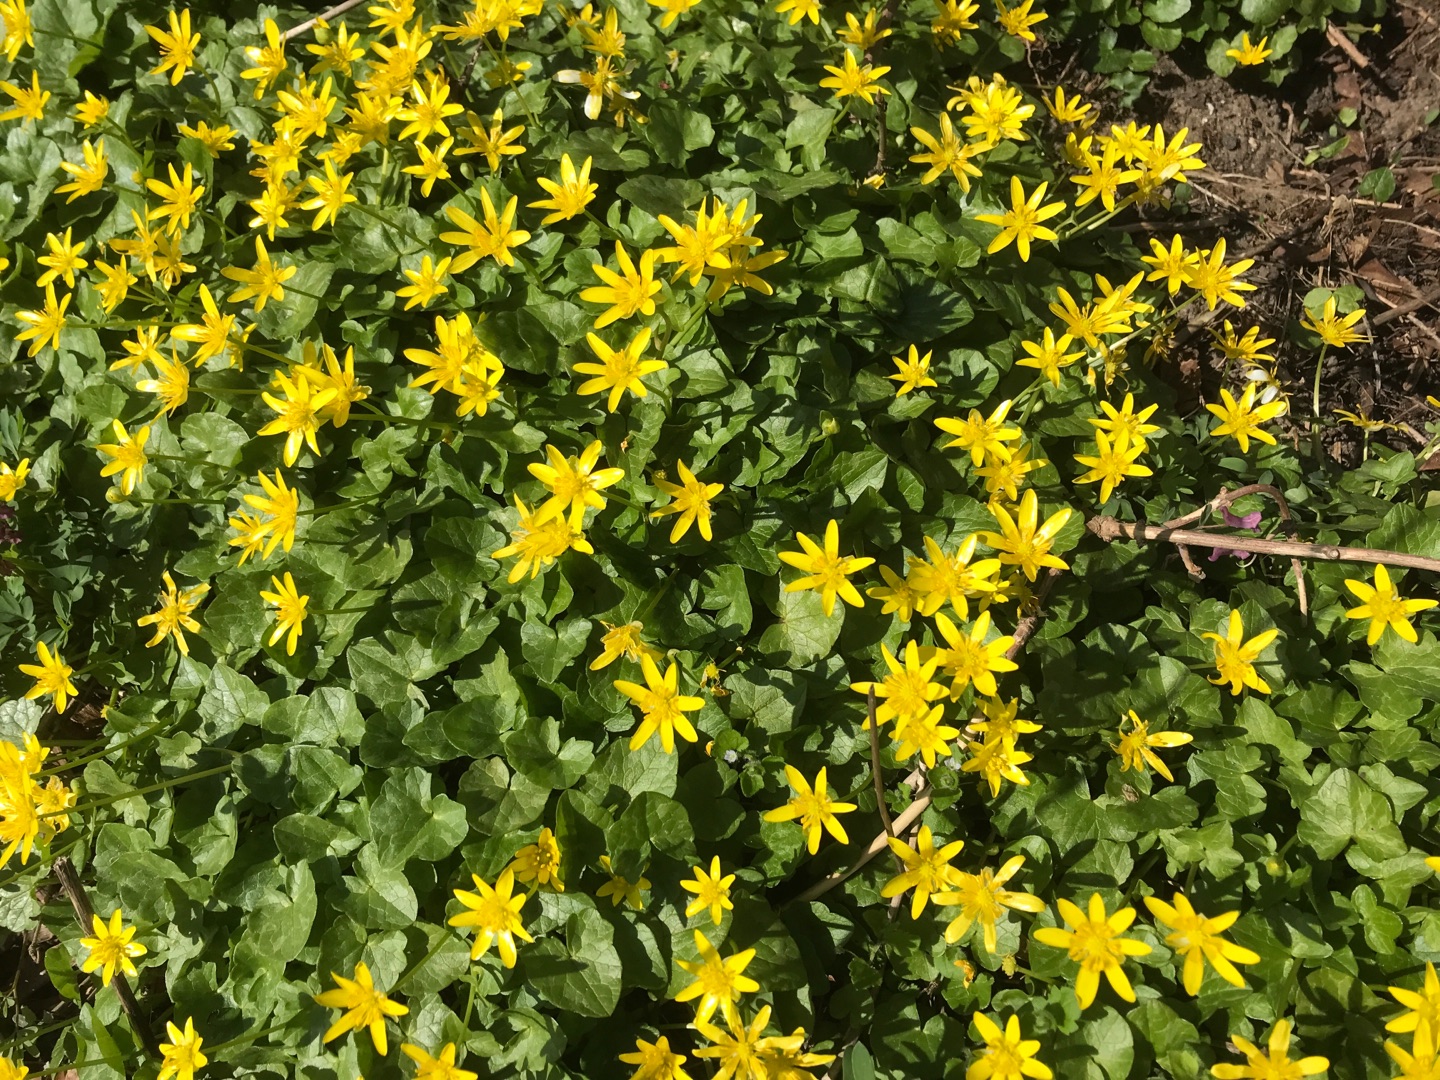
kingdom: Plantae
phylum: Tracheophyta
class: Magnoliopsida
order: Ranunculales
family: Ranunculaceae
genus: Ficaria
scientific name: Ficaria verna
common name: Almindelig vorterod
